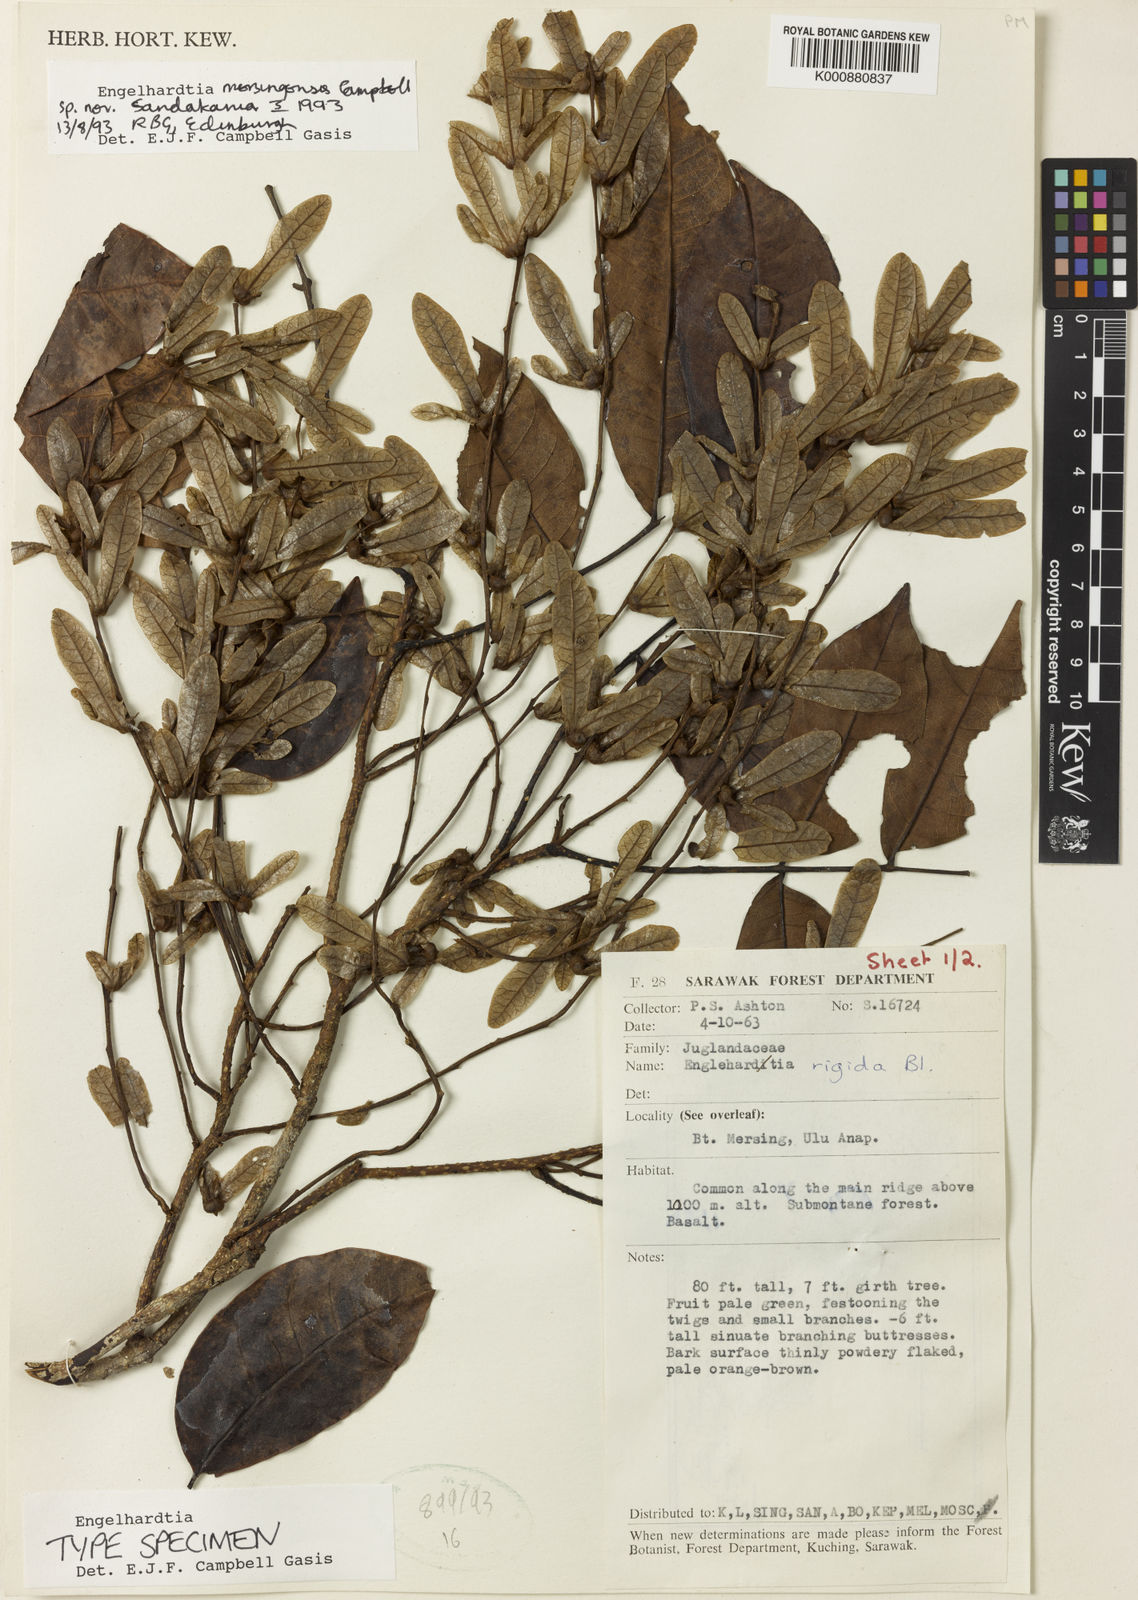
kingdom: Plantae
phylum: Tracheophyta
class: Magnoliopsida
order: Fagales
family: Juglandaceae
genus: Engelhardia
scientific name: Engelhardia mersingensis
